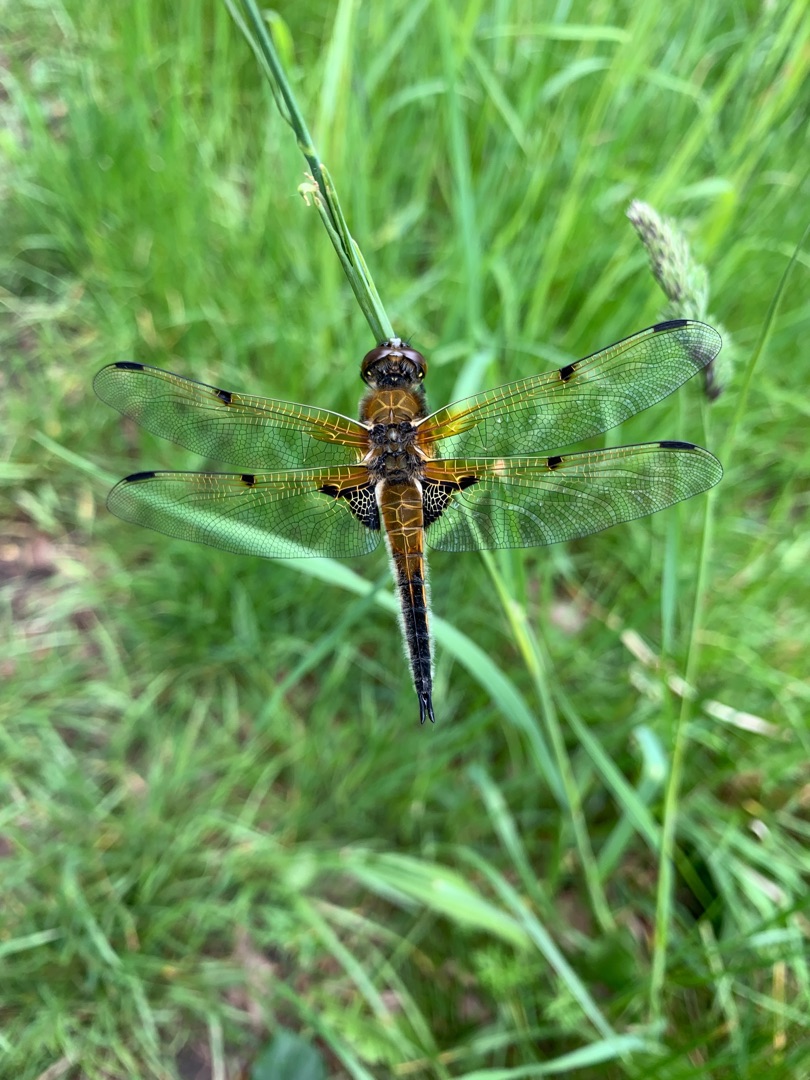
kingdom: Animalia
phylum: Arthropoda
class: Insecta
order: Odonata
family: Libellulidae
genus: Libellula
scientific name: Libellula quadrimaculata
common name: Fireplettet libel
